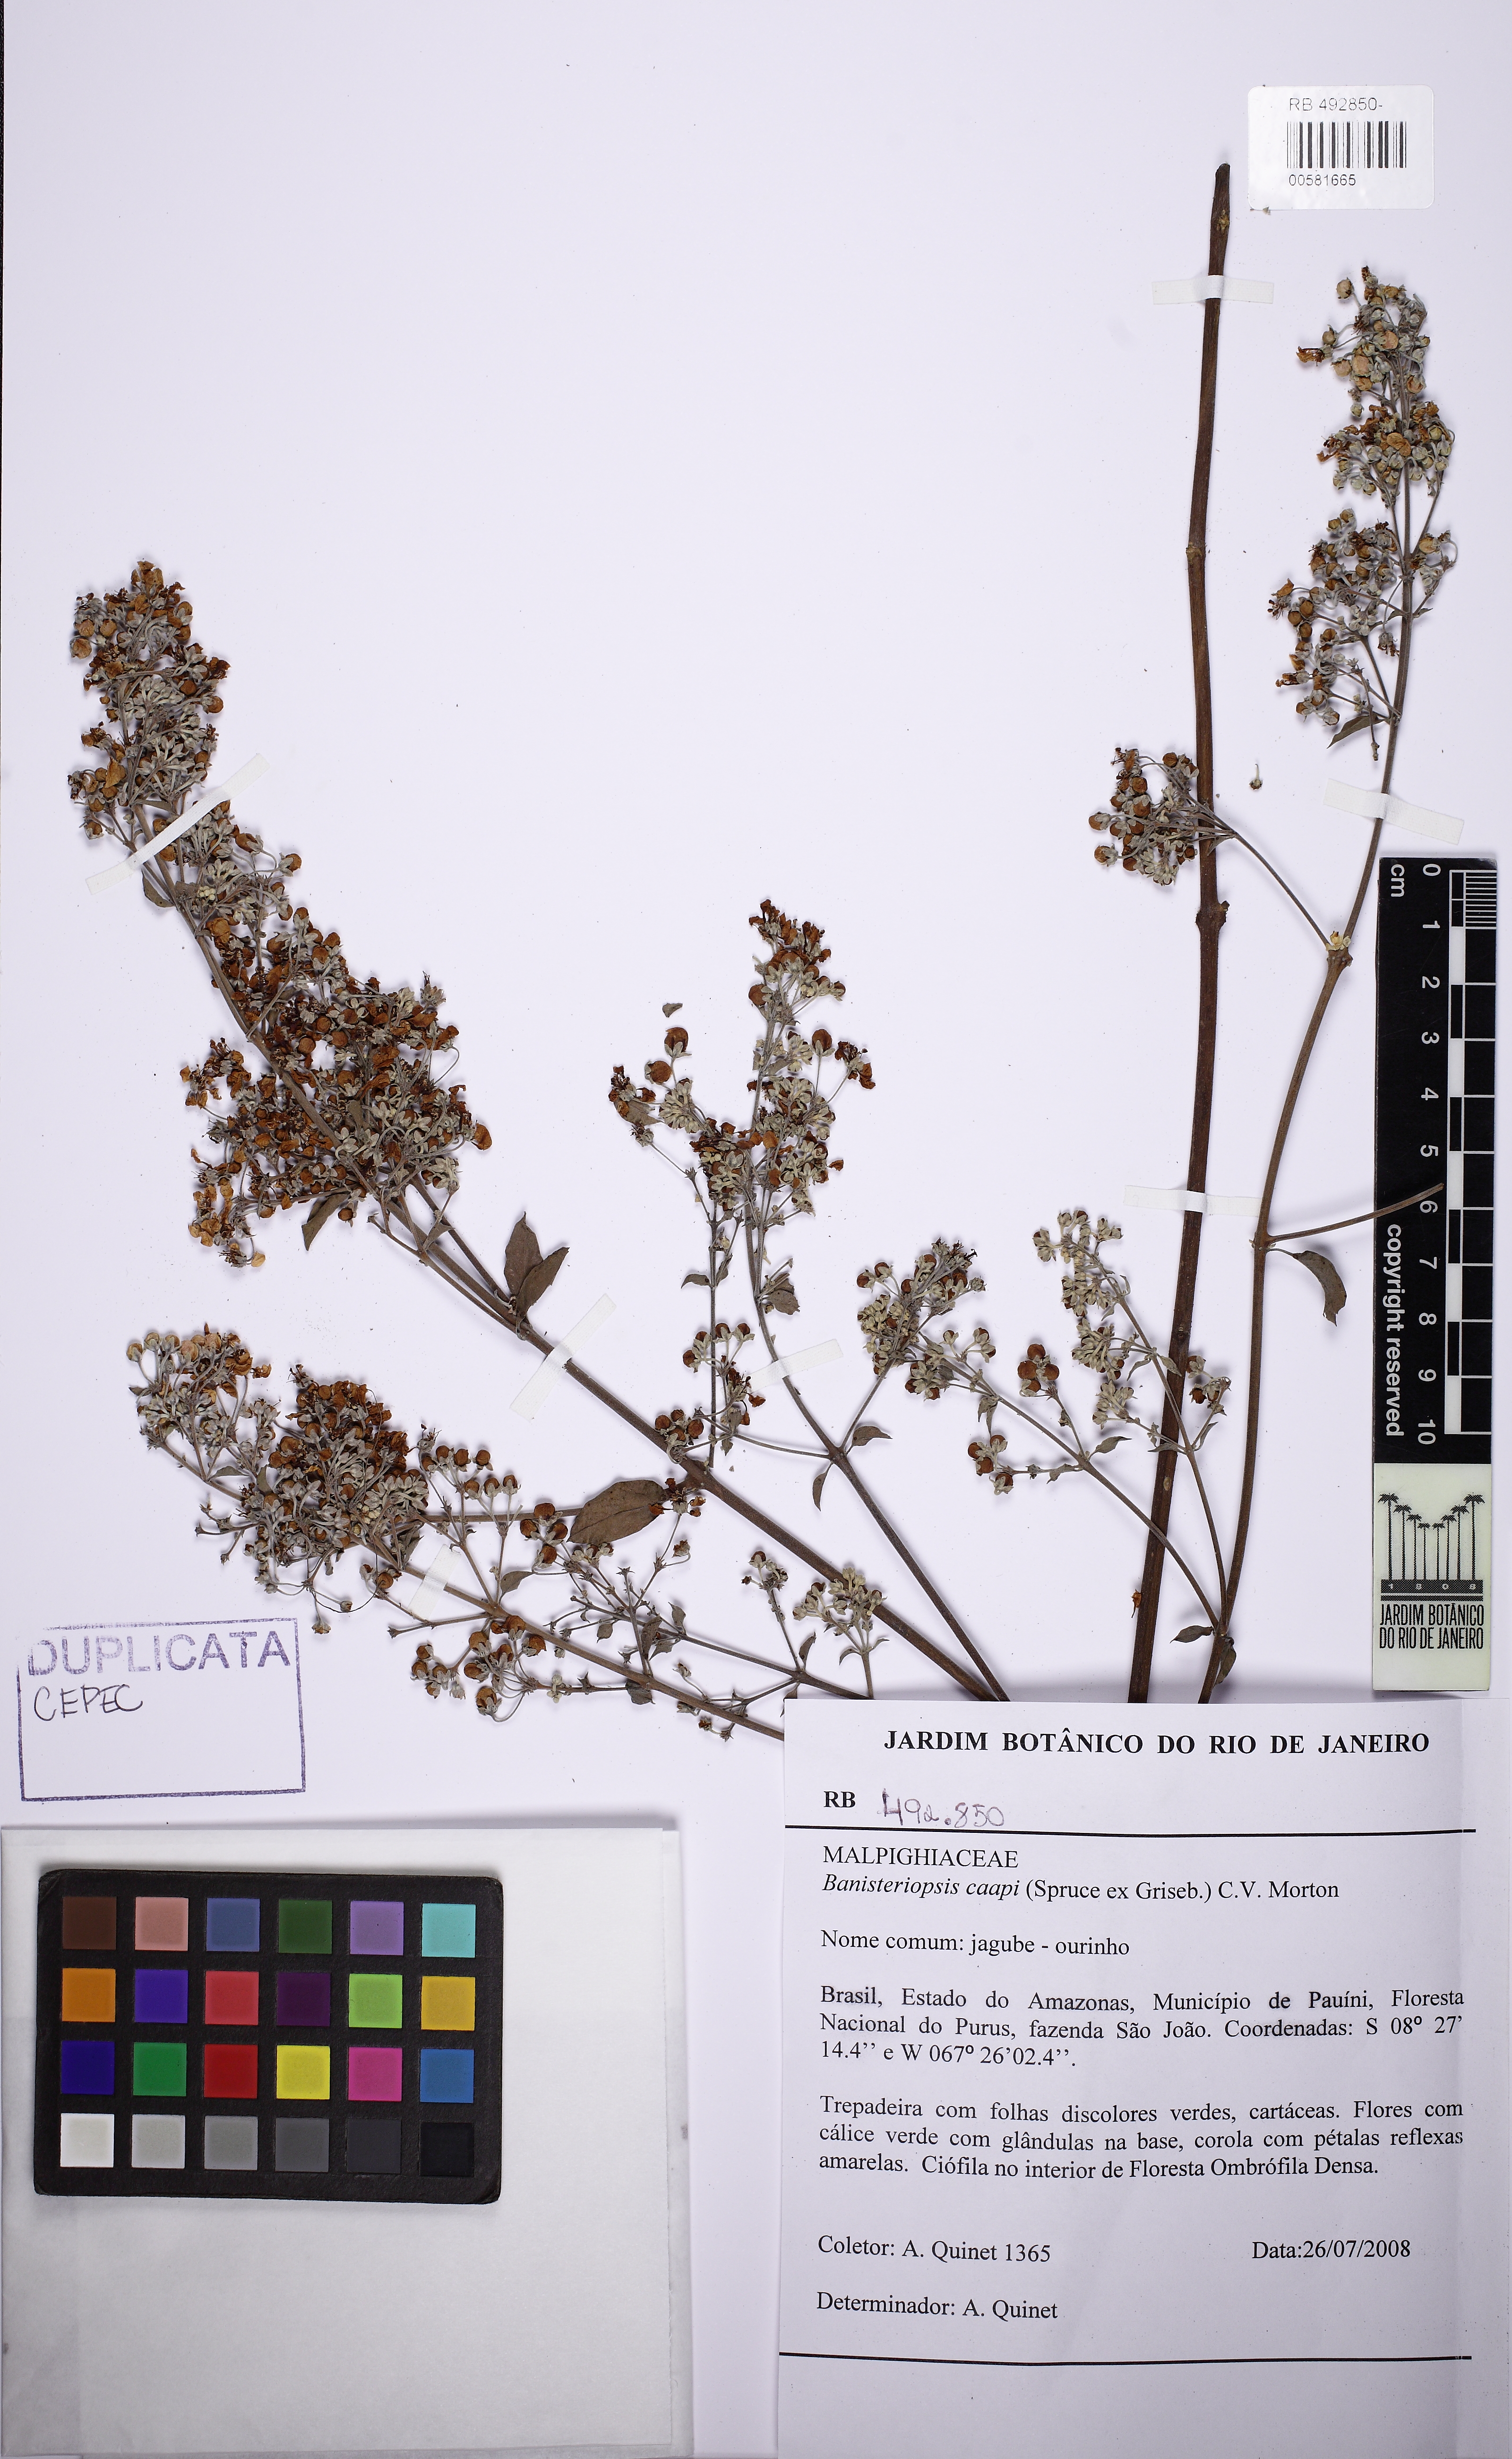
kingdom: Plantae
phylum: Tracheophyta
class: Magnoliopsida
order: Malpighiales
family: Malpighiaceae
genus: Banisteriopsis
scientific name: Banisteriopsis caapi
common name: Soulvine
